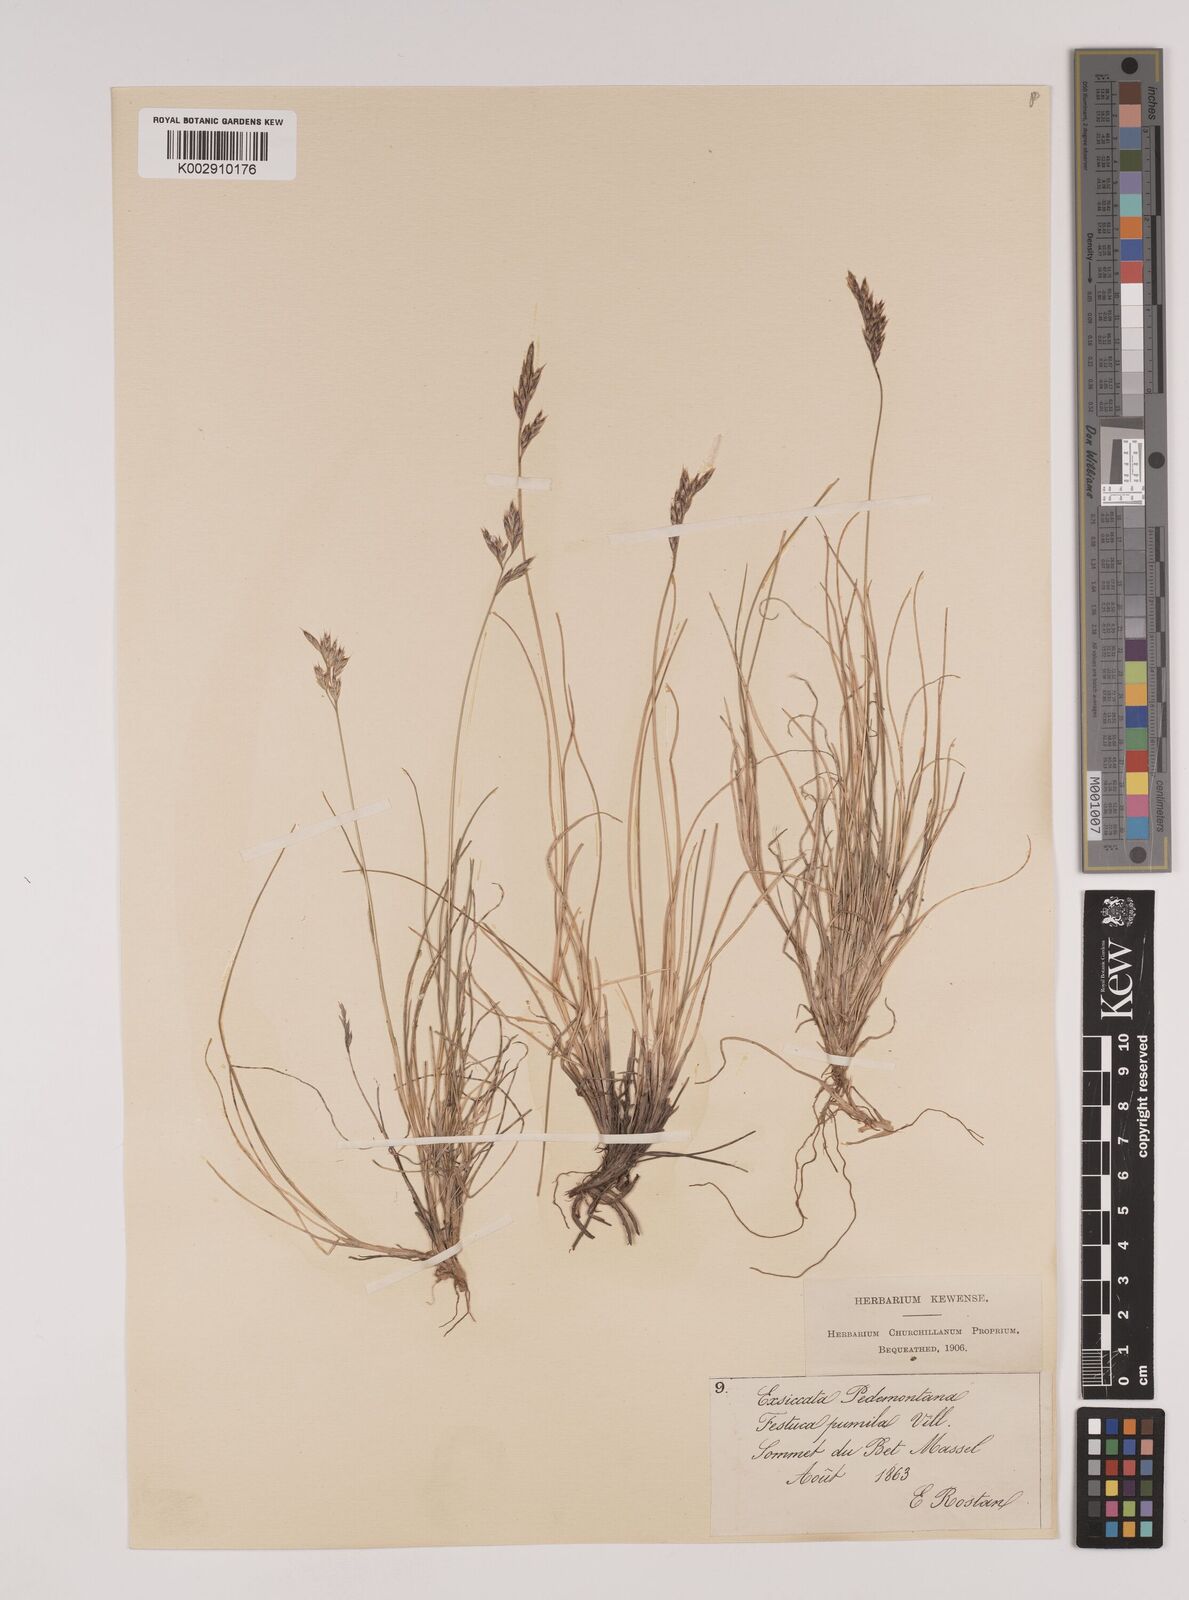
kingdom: Plantae
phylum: Tracheophyta
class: Liliopsida
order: Poales
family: Poaceae
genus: Festuca
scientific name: Festuca quadriflora
